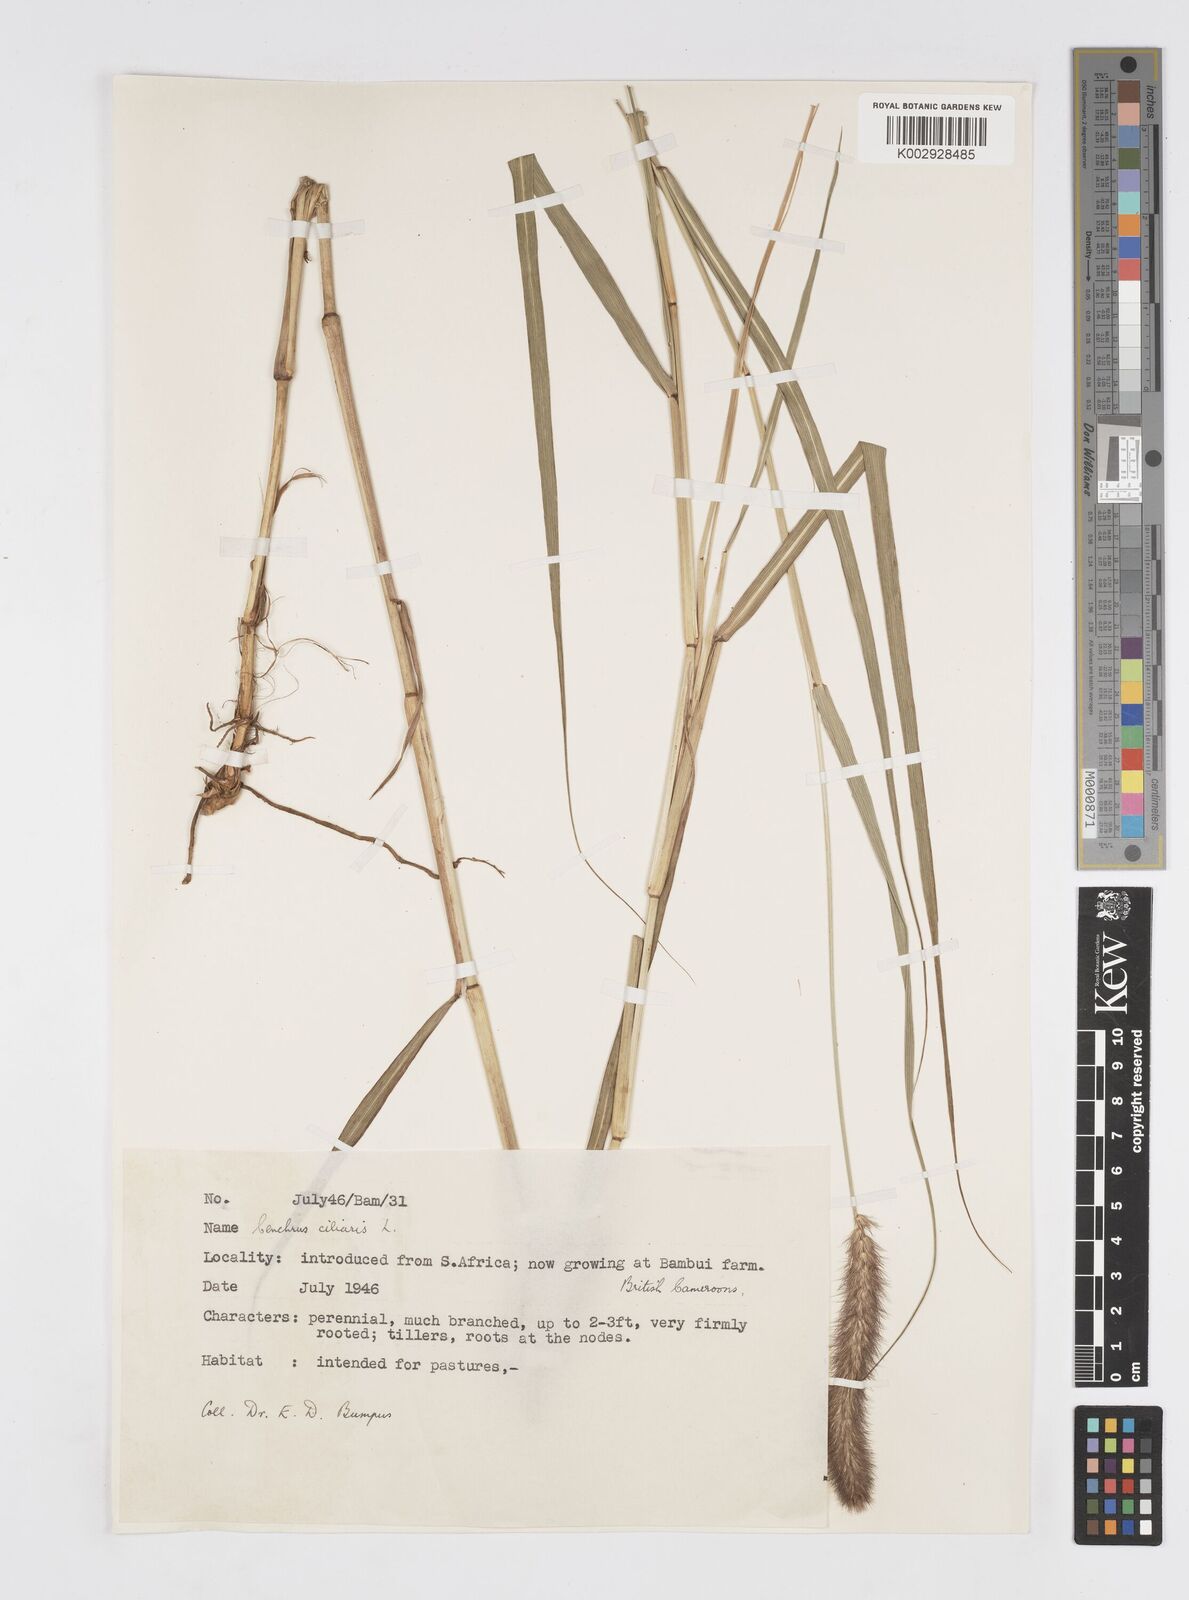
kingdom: Plantae
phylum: Tracheophyta
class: Liliopsida
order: Poales
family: Poaceae
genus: Cenchrus
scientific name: Cenchrus ciliaris
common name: Buffelgrass
